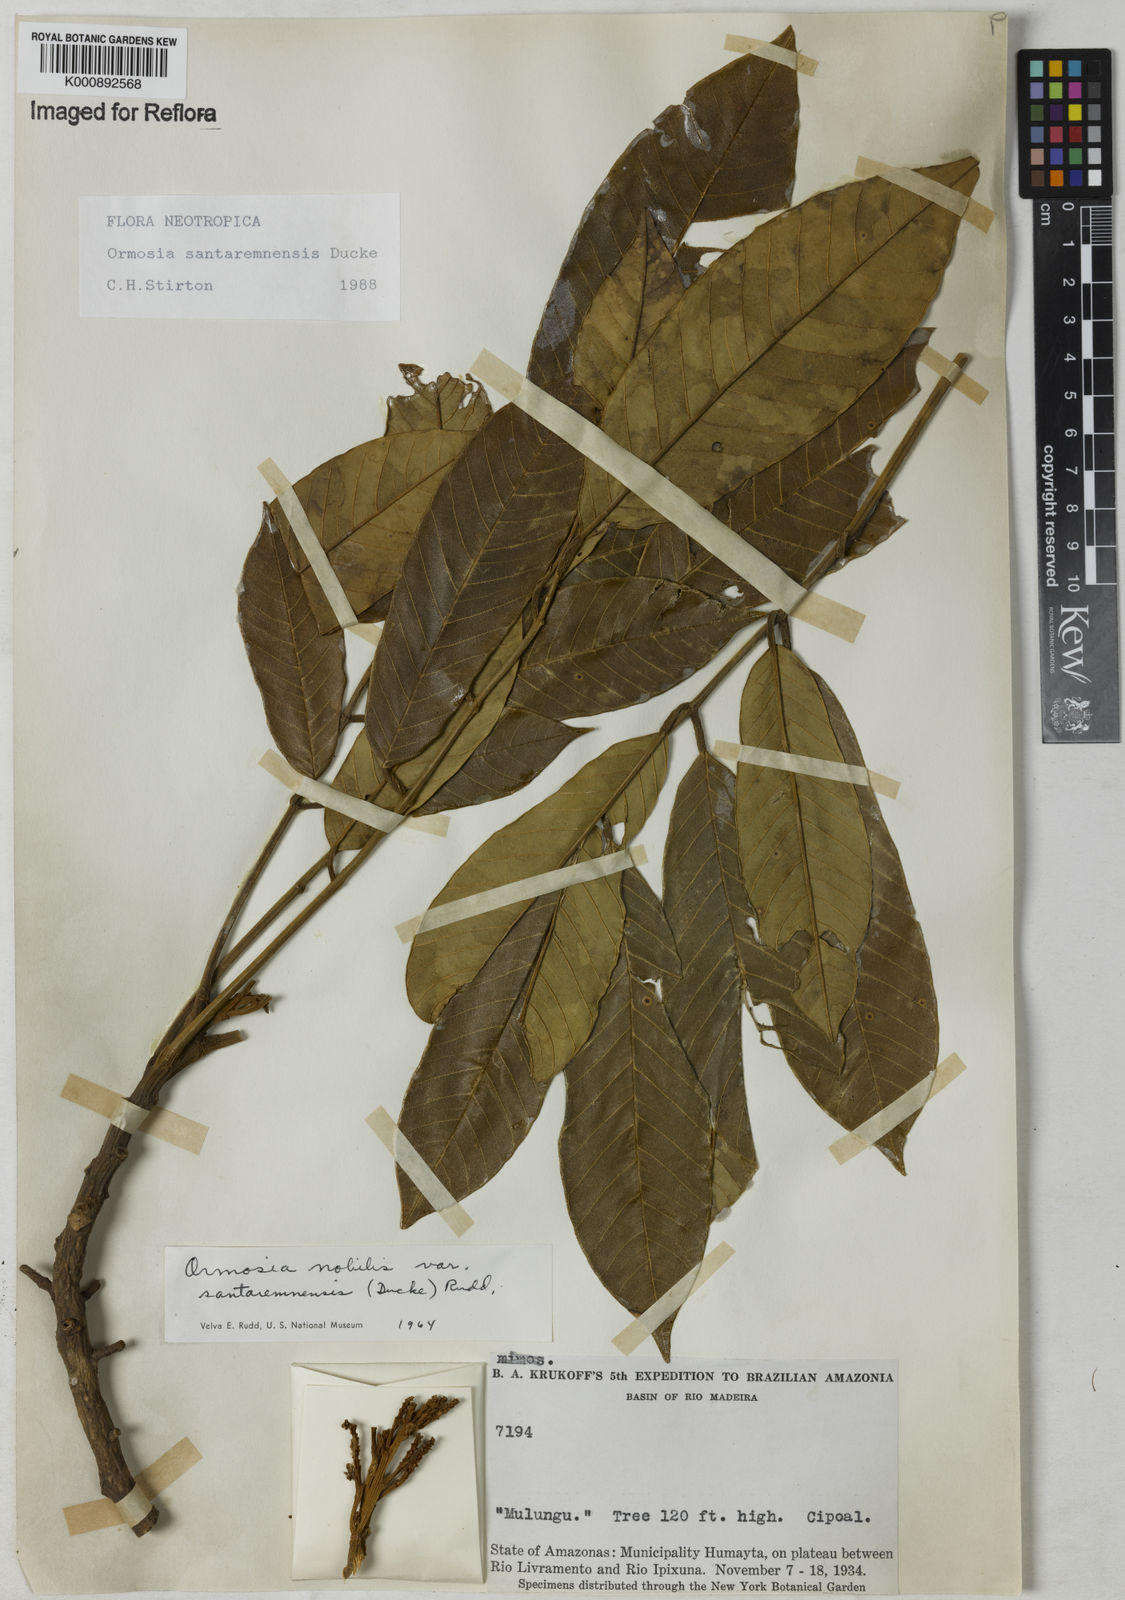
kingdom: Plantae
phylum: Tracheophyta
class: Magnoliopsida
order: Fabales
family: Fabaceae
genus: Ormosia
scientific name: Ormosia santaremnensis
